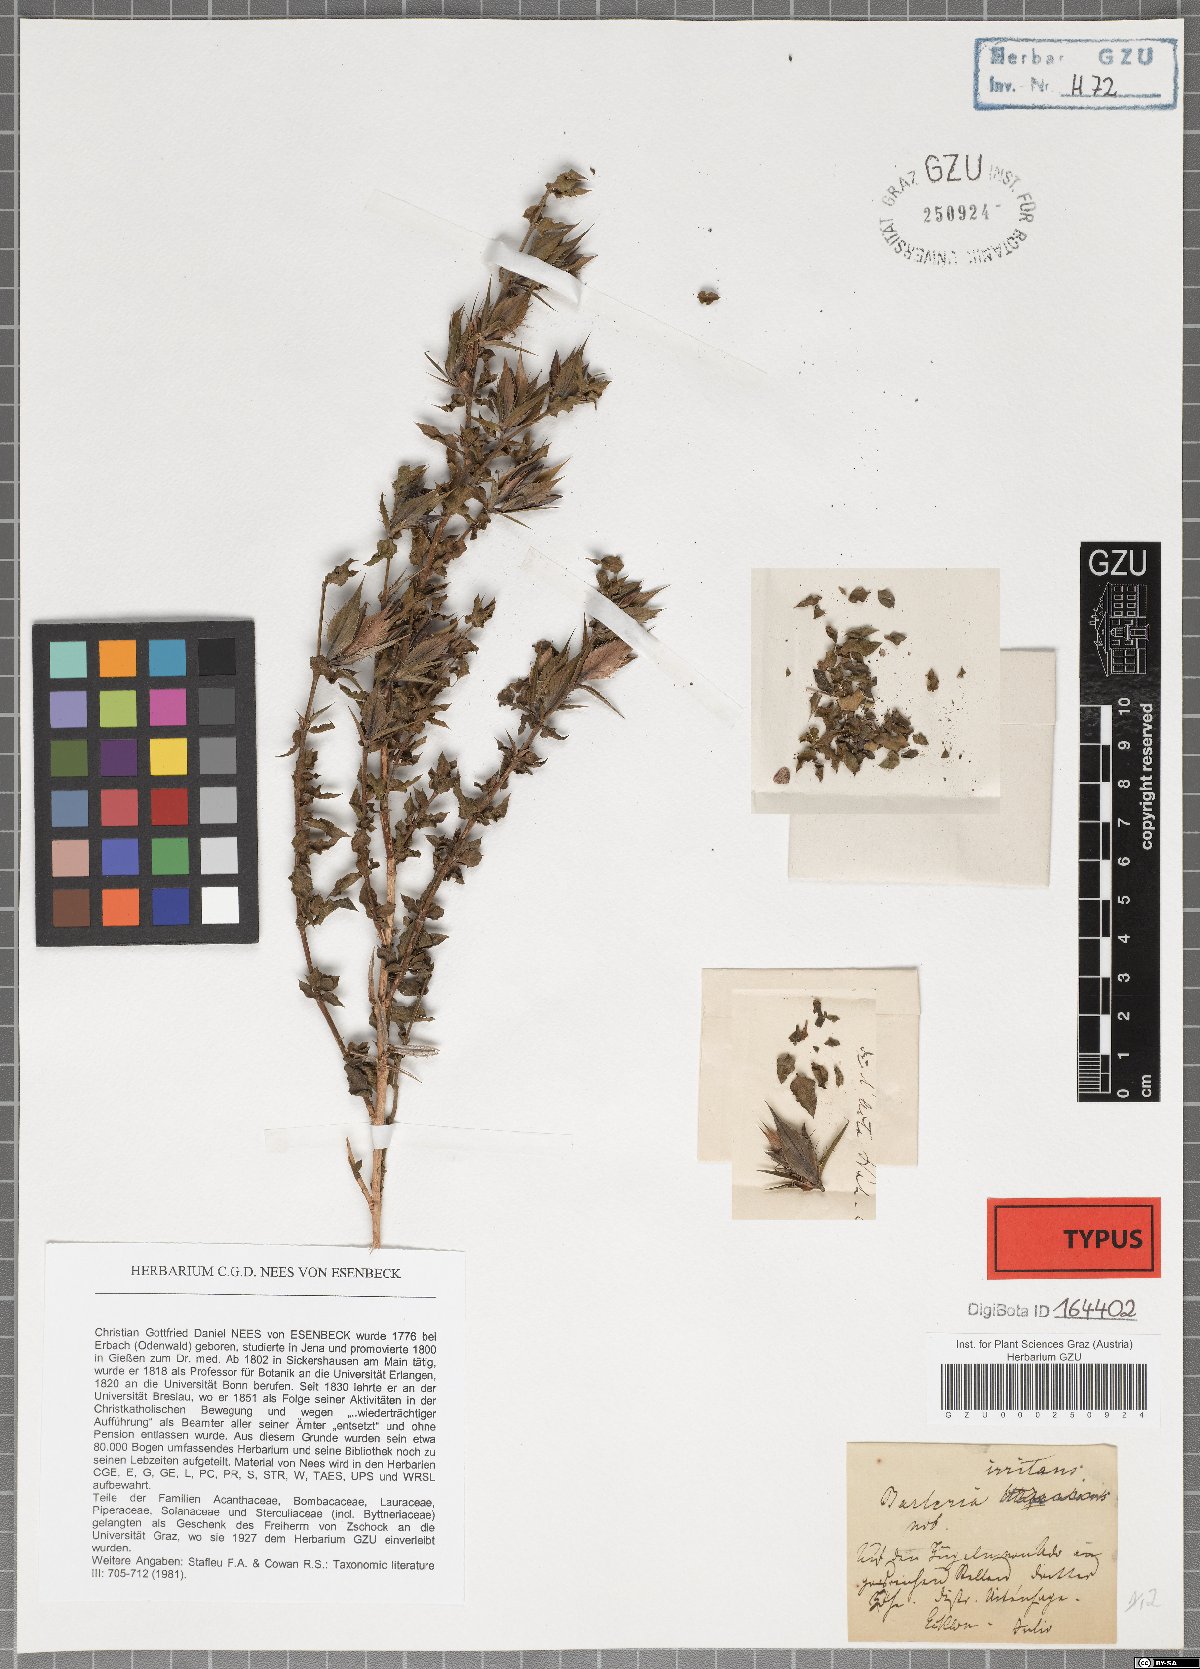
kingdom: Plantae
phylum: Tracheophyta
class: Magnoliopsida
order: Lamiales
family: Acanthaceae
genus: Barleria
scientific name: Barleria irritans
